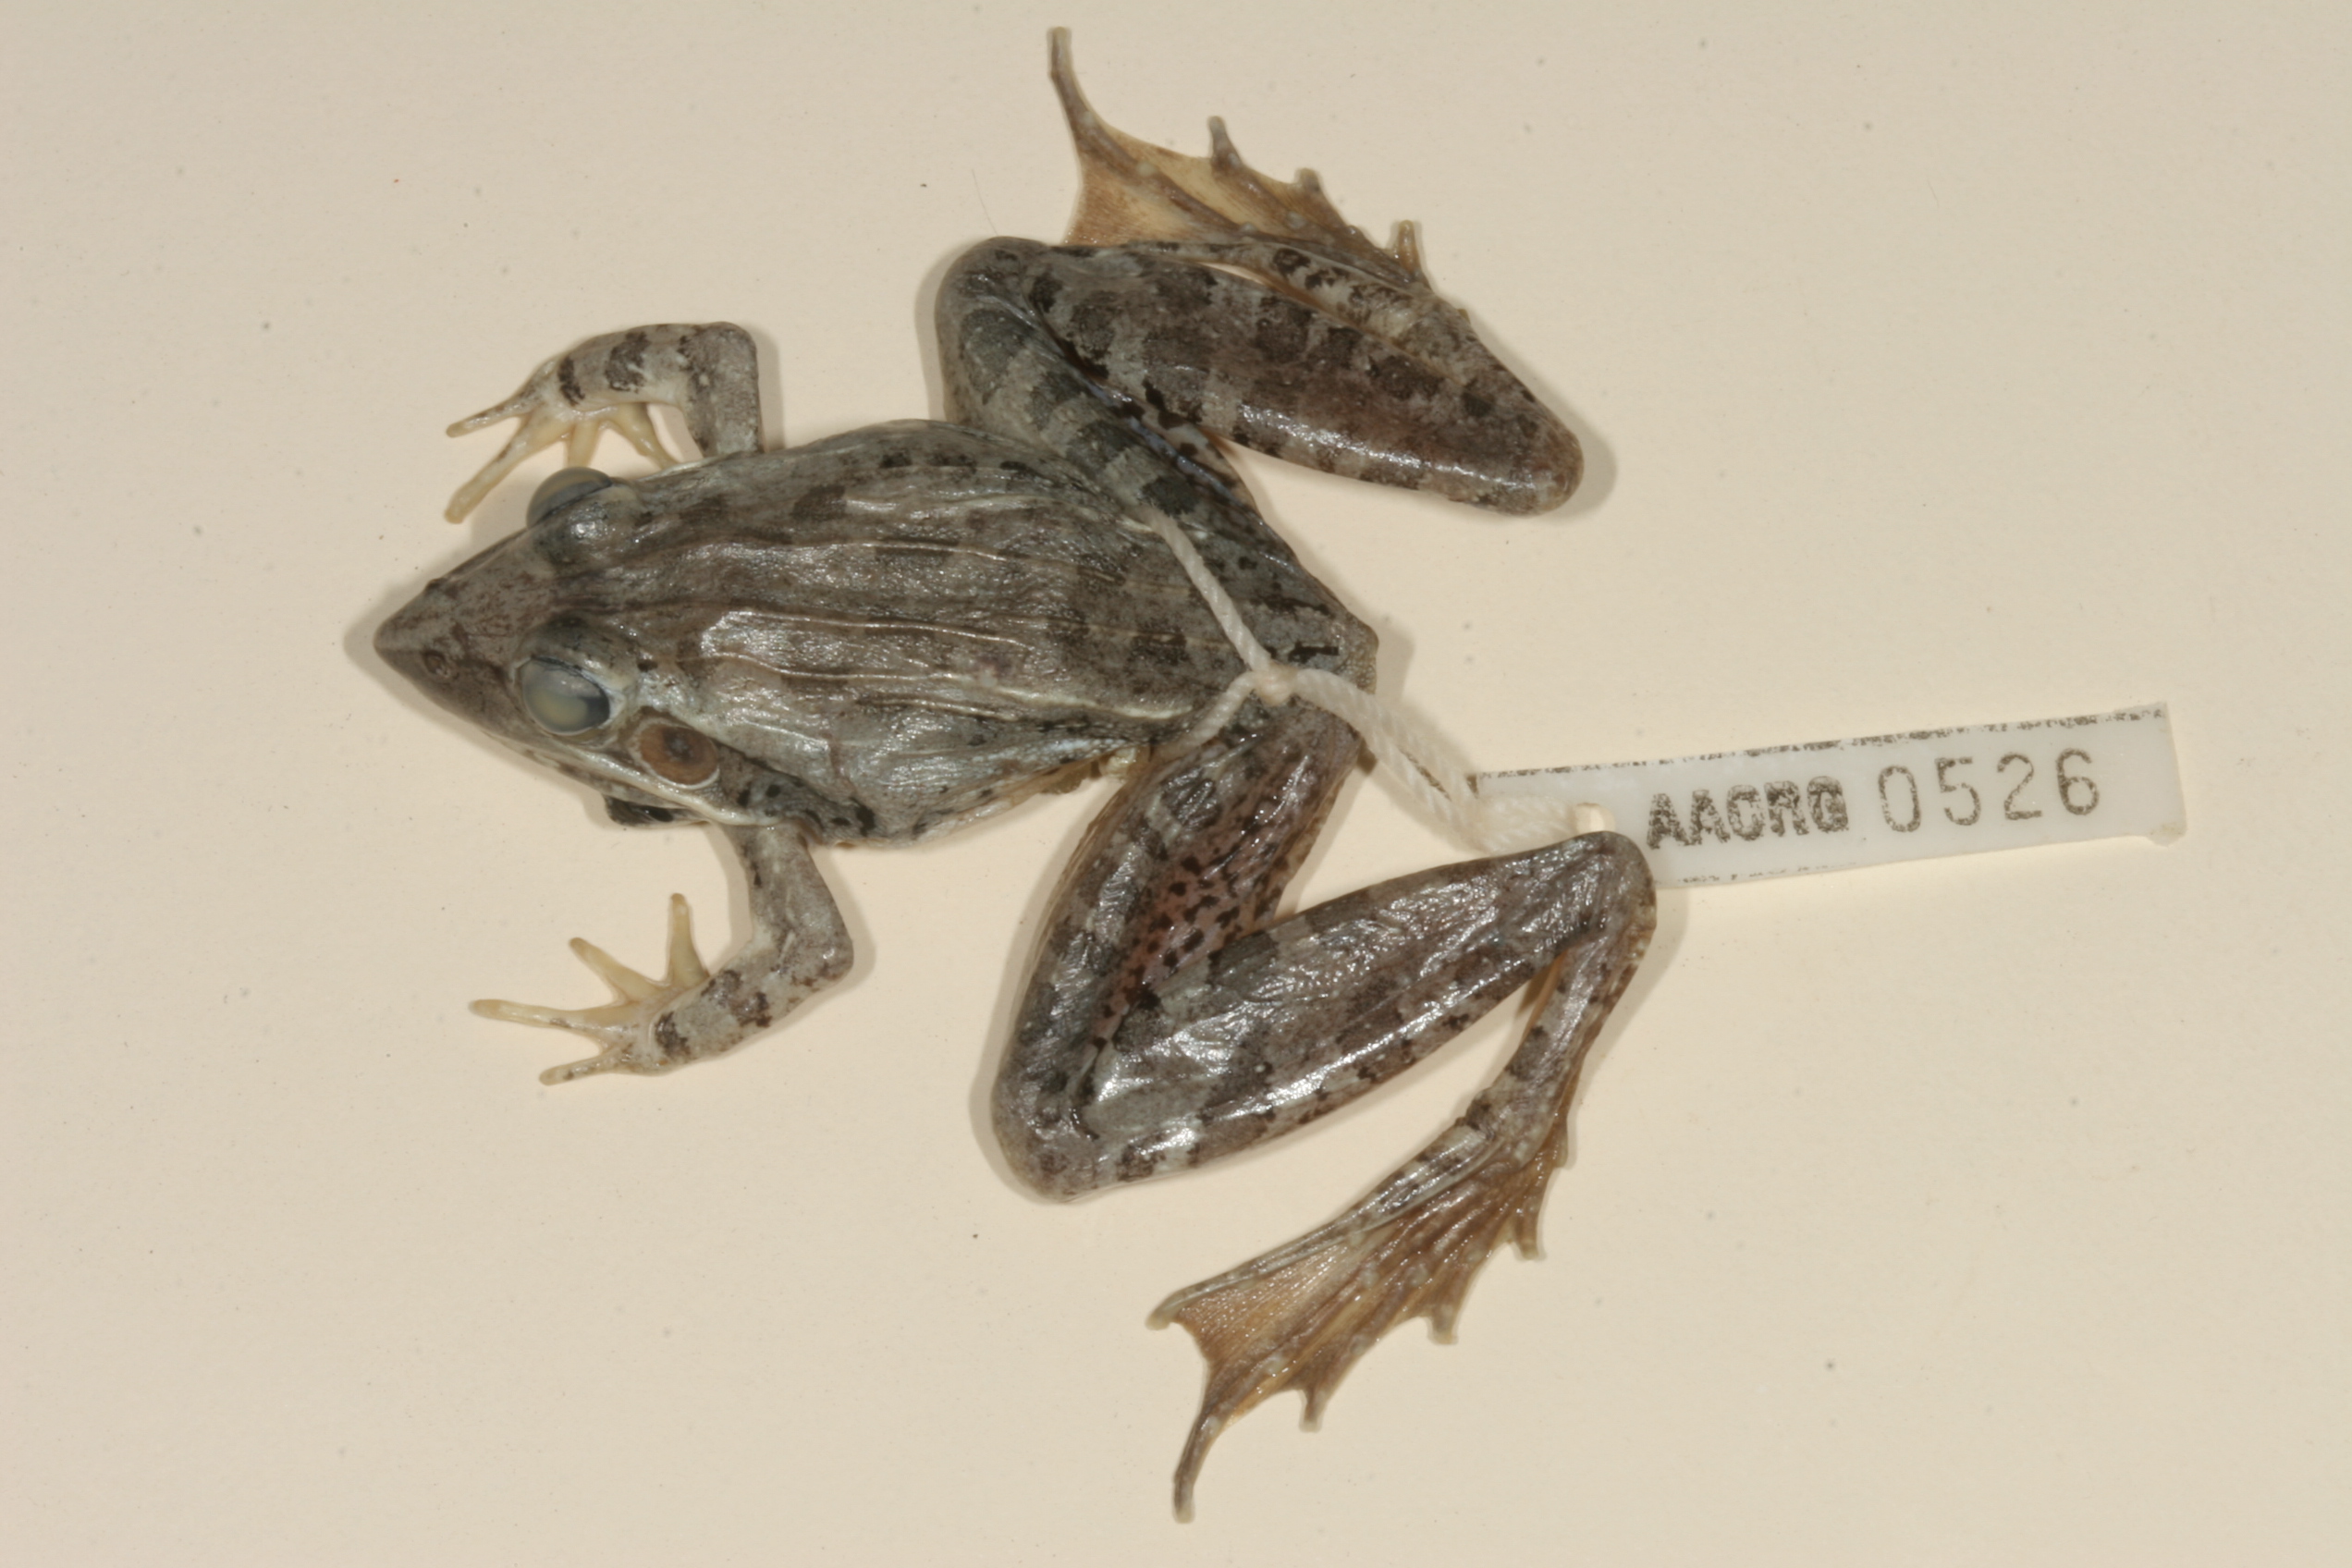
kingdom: Animalia
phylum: Chordata
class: Amphibia
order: Anura
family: Ptychadenidae
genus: Ptychadena
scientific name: Ptychadena oxyrhynchus
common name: Sharp-nosed ridged frog
